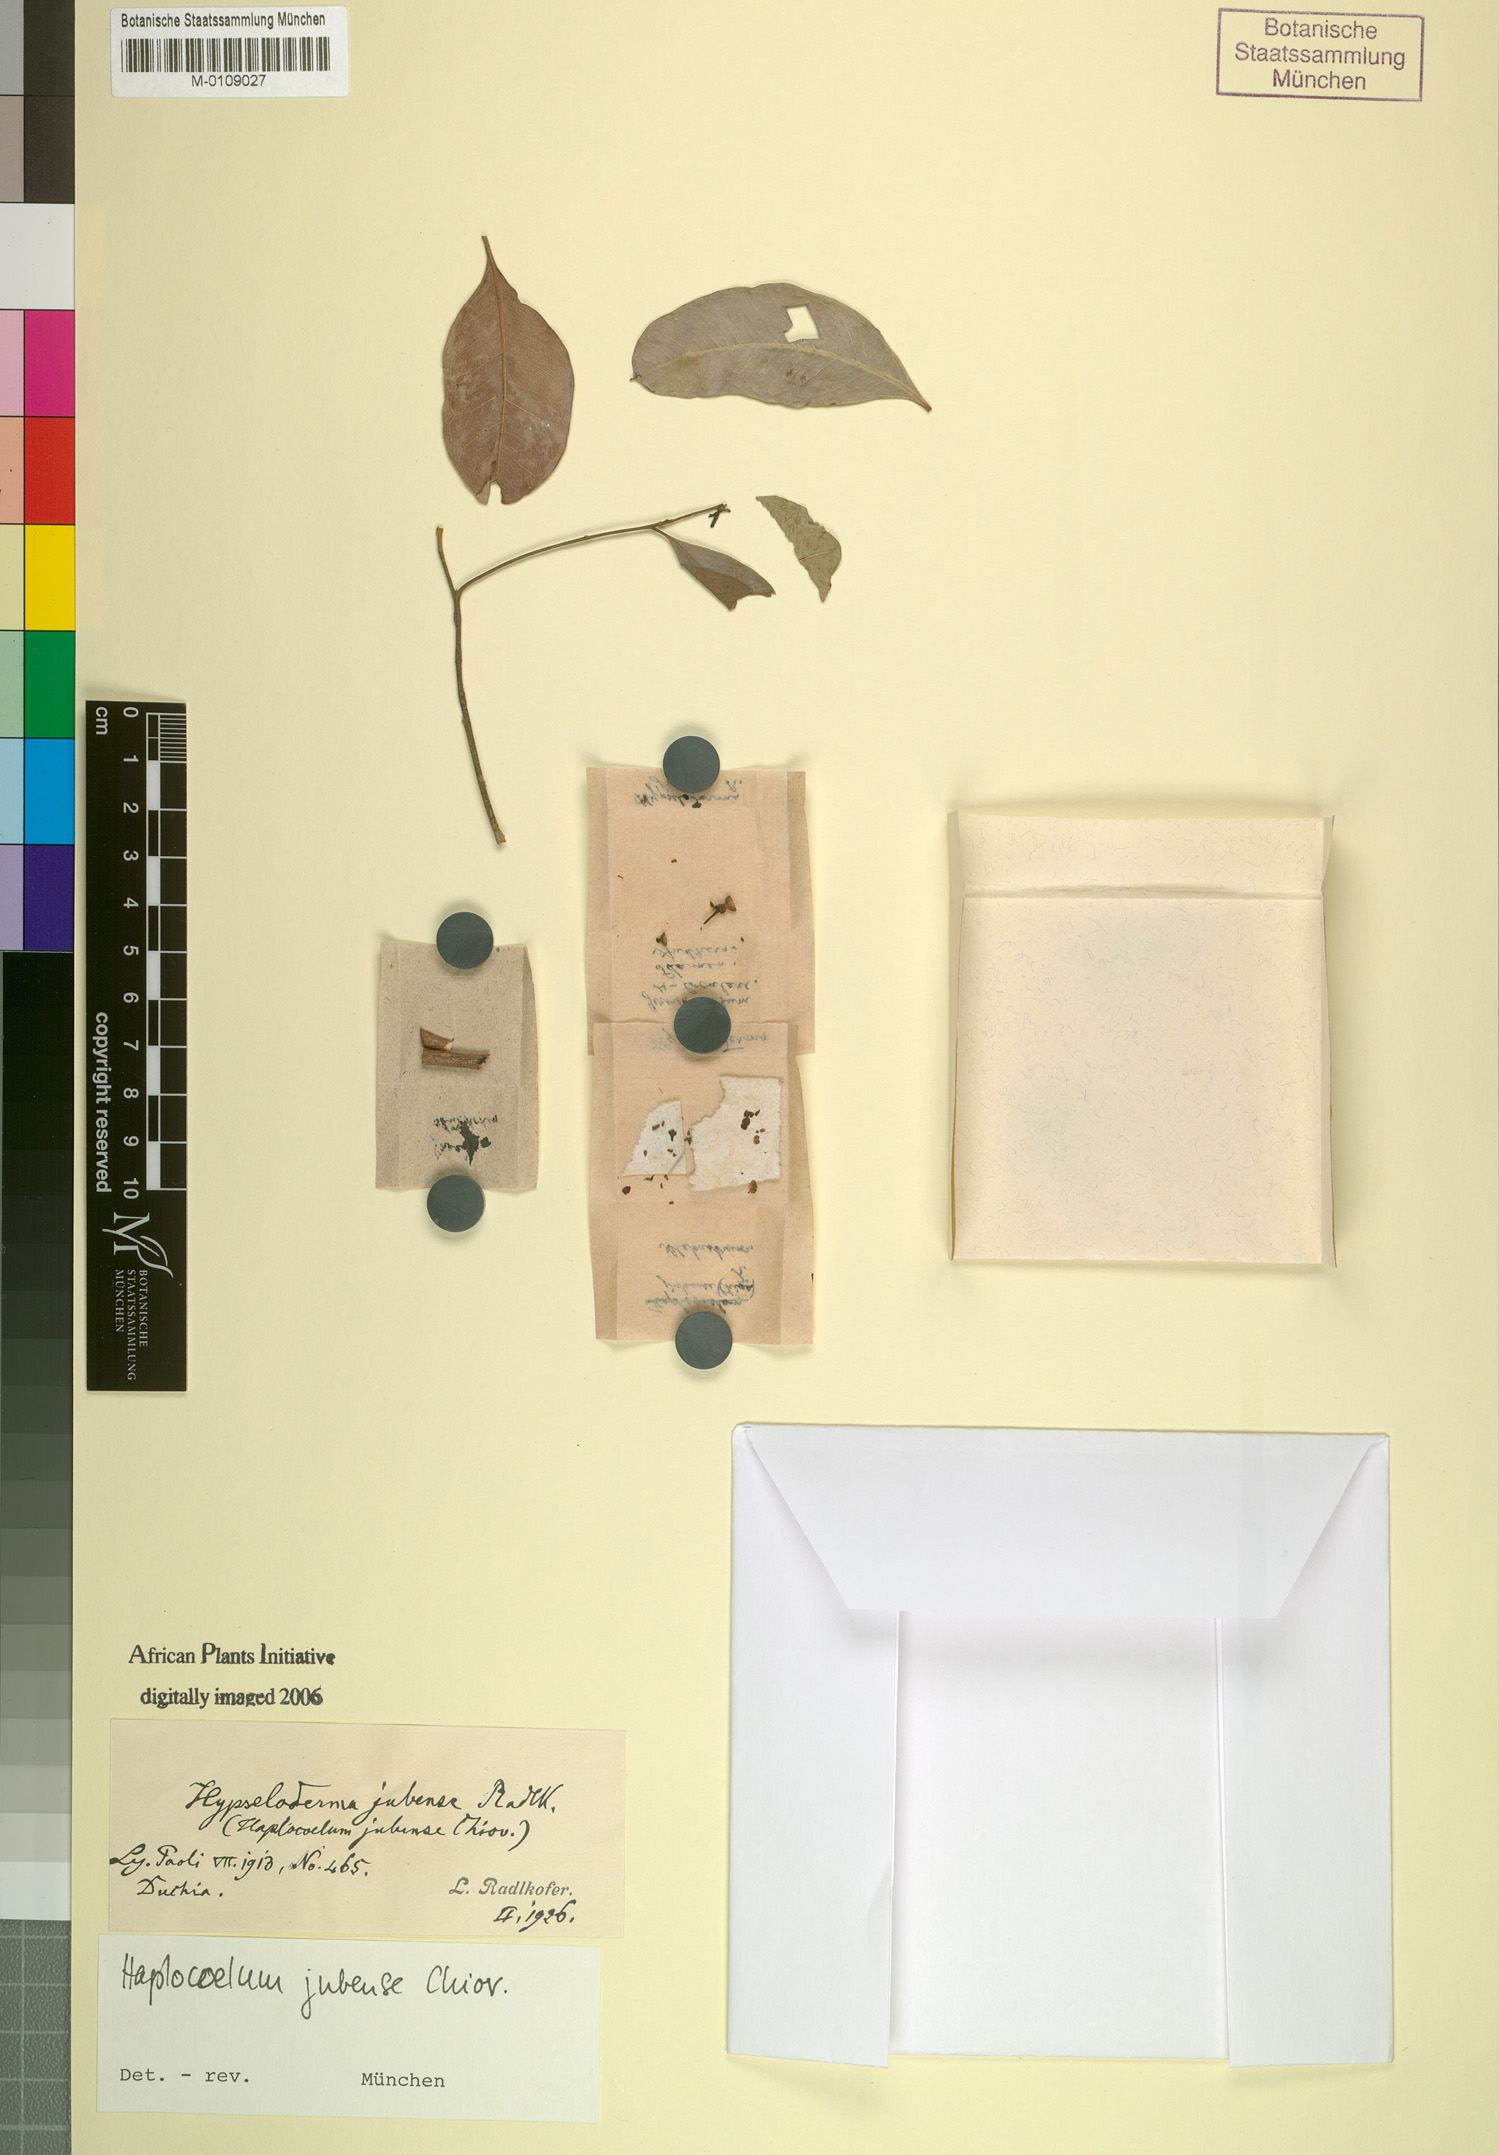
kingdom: Plantae
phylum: Tracheophyta
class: Magnoliopsida
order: Sapindales
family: Sapindaceae
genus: Camptolepis
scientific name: Camptolepis ramiflora
